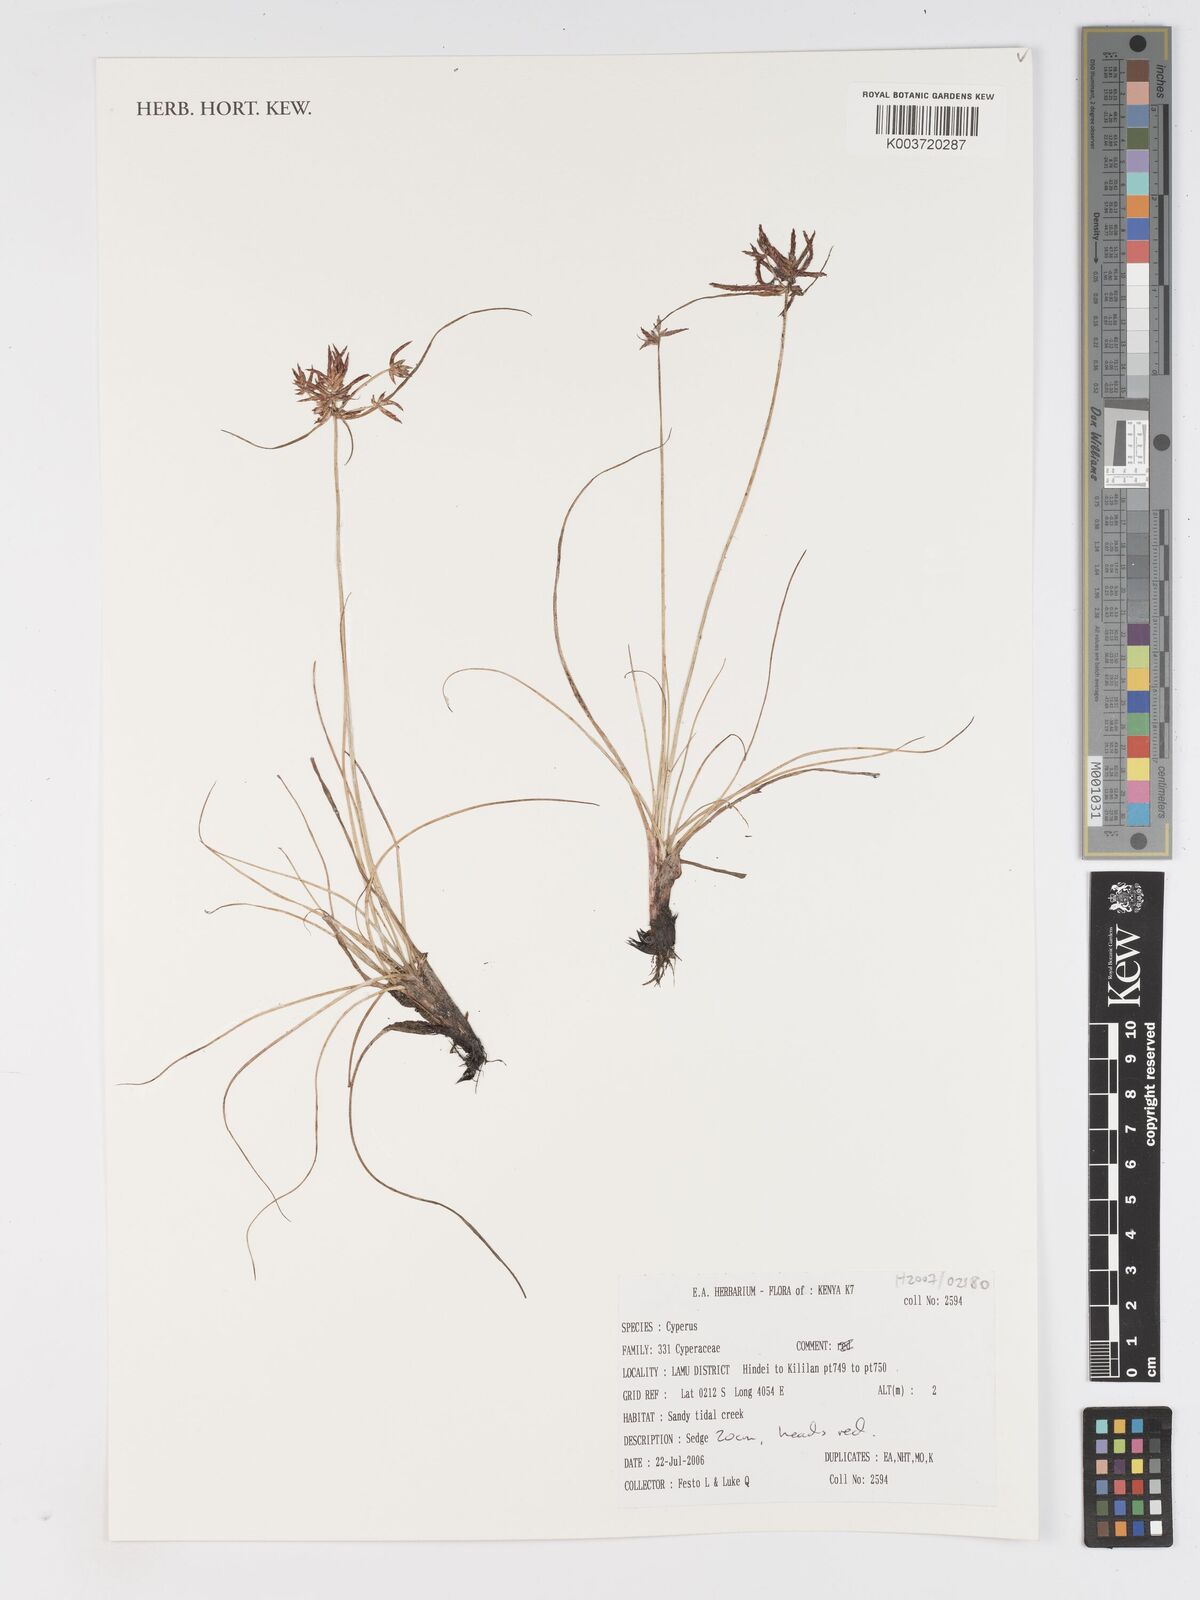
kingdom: Plantae
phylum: Tracheophyta
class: Liliopsida
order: Poales
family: Cyperaceae
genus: Cyperus
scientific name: Cyperus
